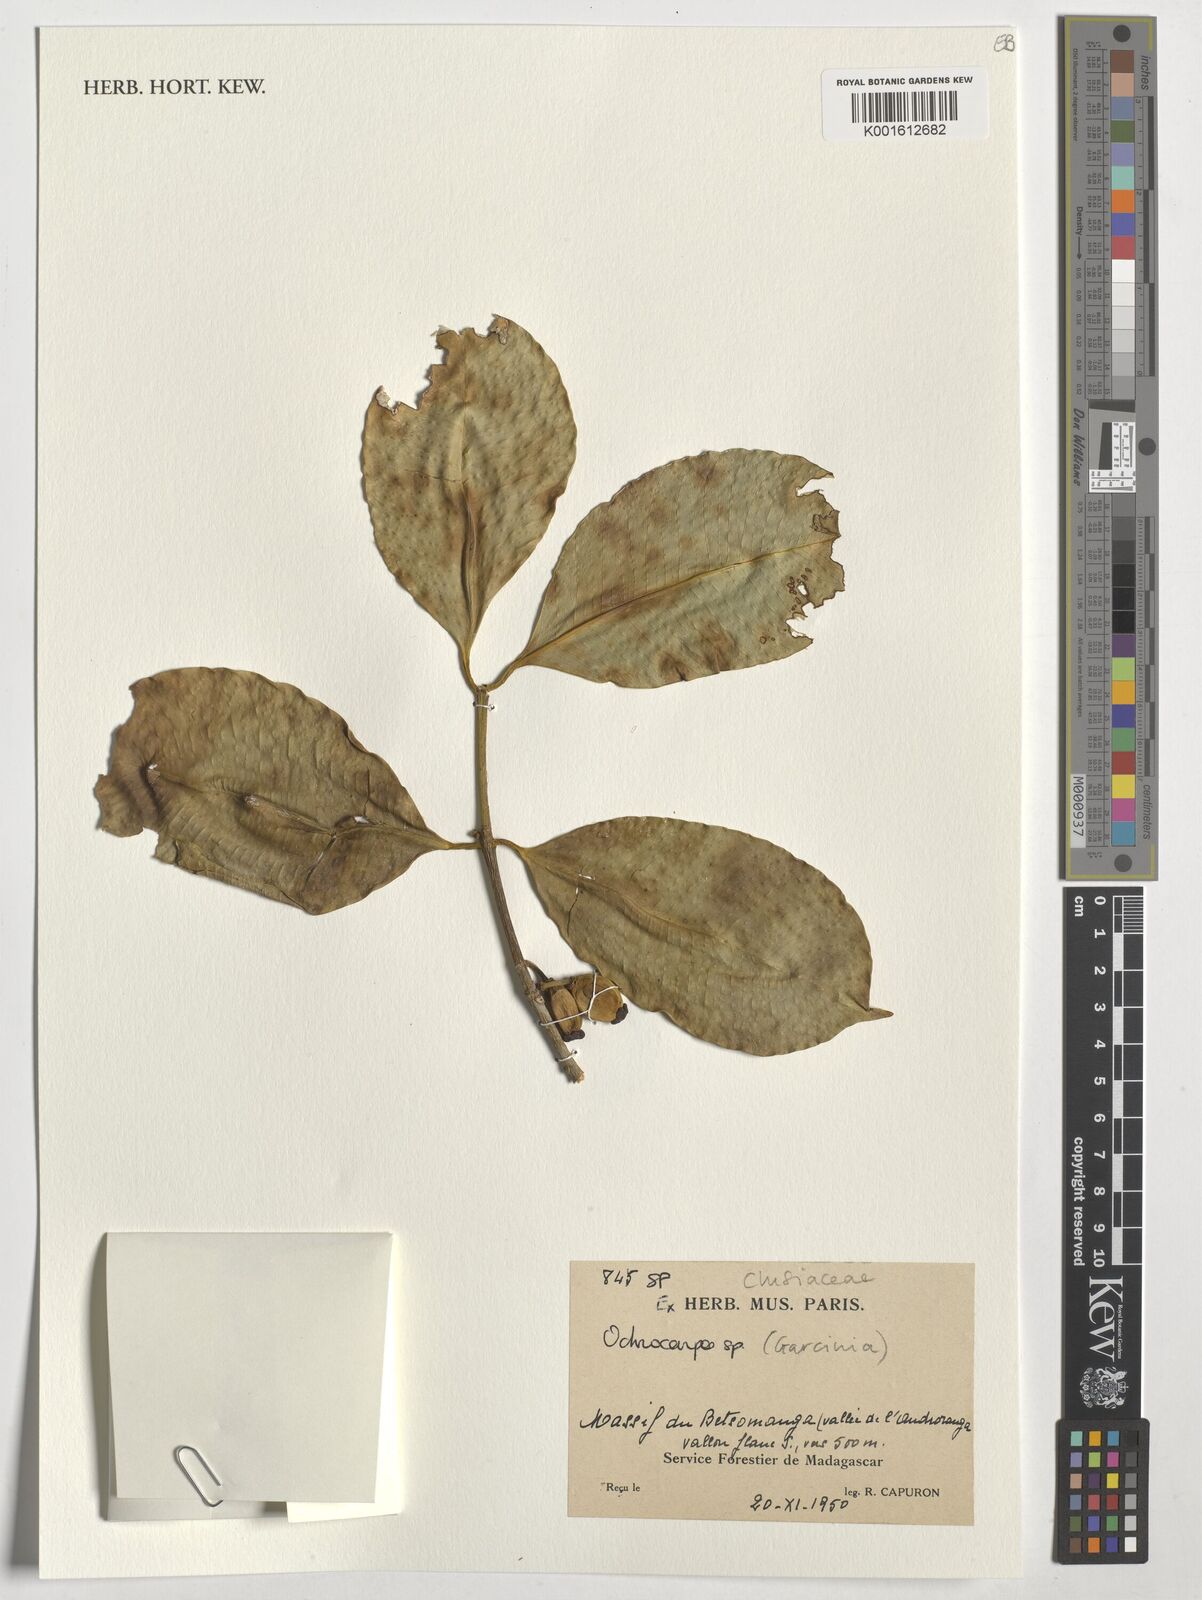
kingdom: Plantae
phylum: Tracheophyta
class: Magnoliopsida
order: Malpighiales
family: Clusiaceae
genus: Garcinia
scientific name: Garcinia
